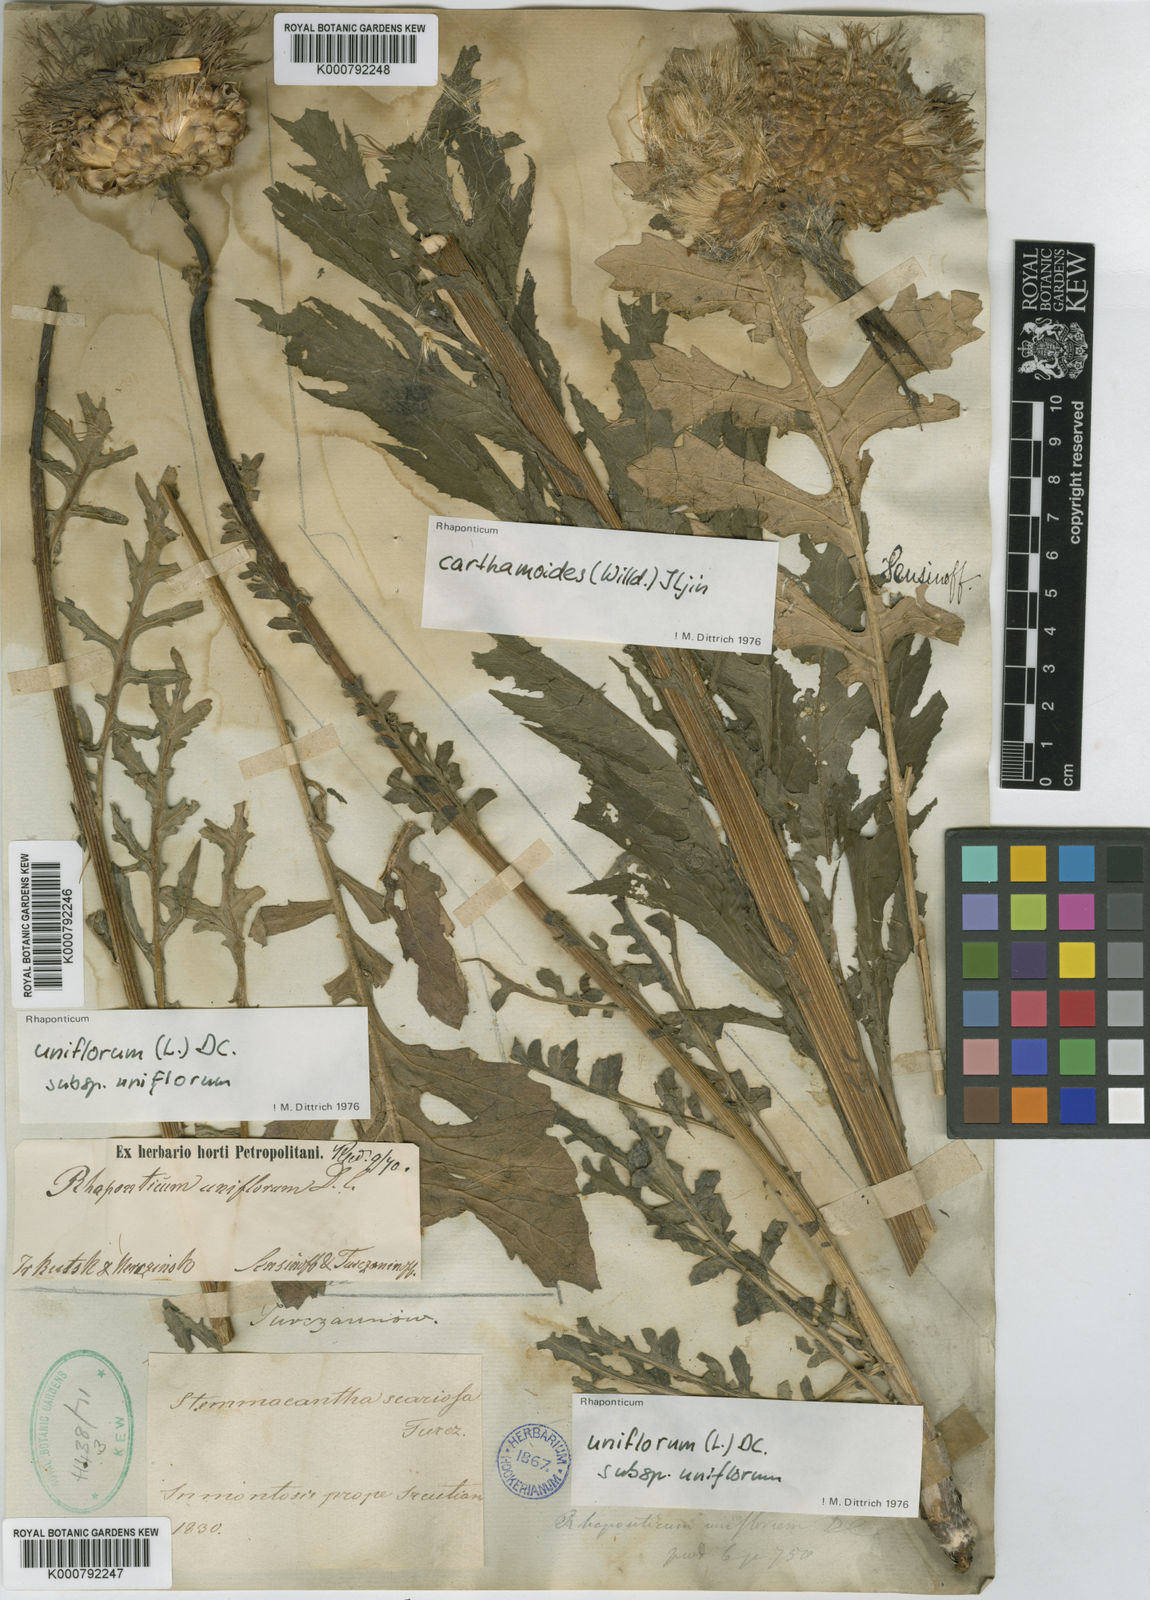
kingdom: Plantae
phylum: Tracheophyta
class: Magnoliopsida
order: Asterales
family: Asteraceae
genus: Leuzea
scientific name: Leuzea uniflora
